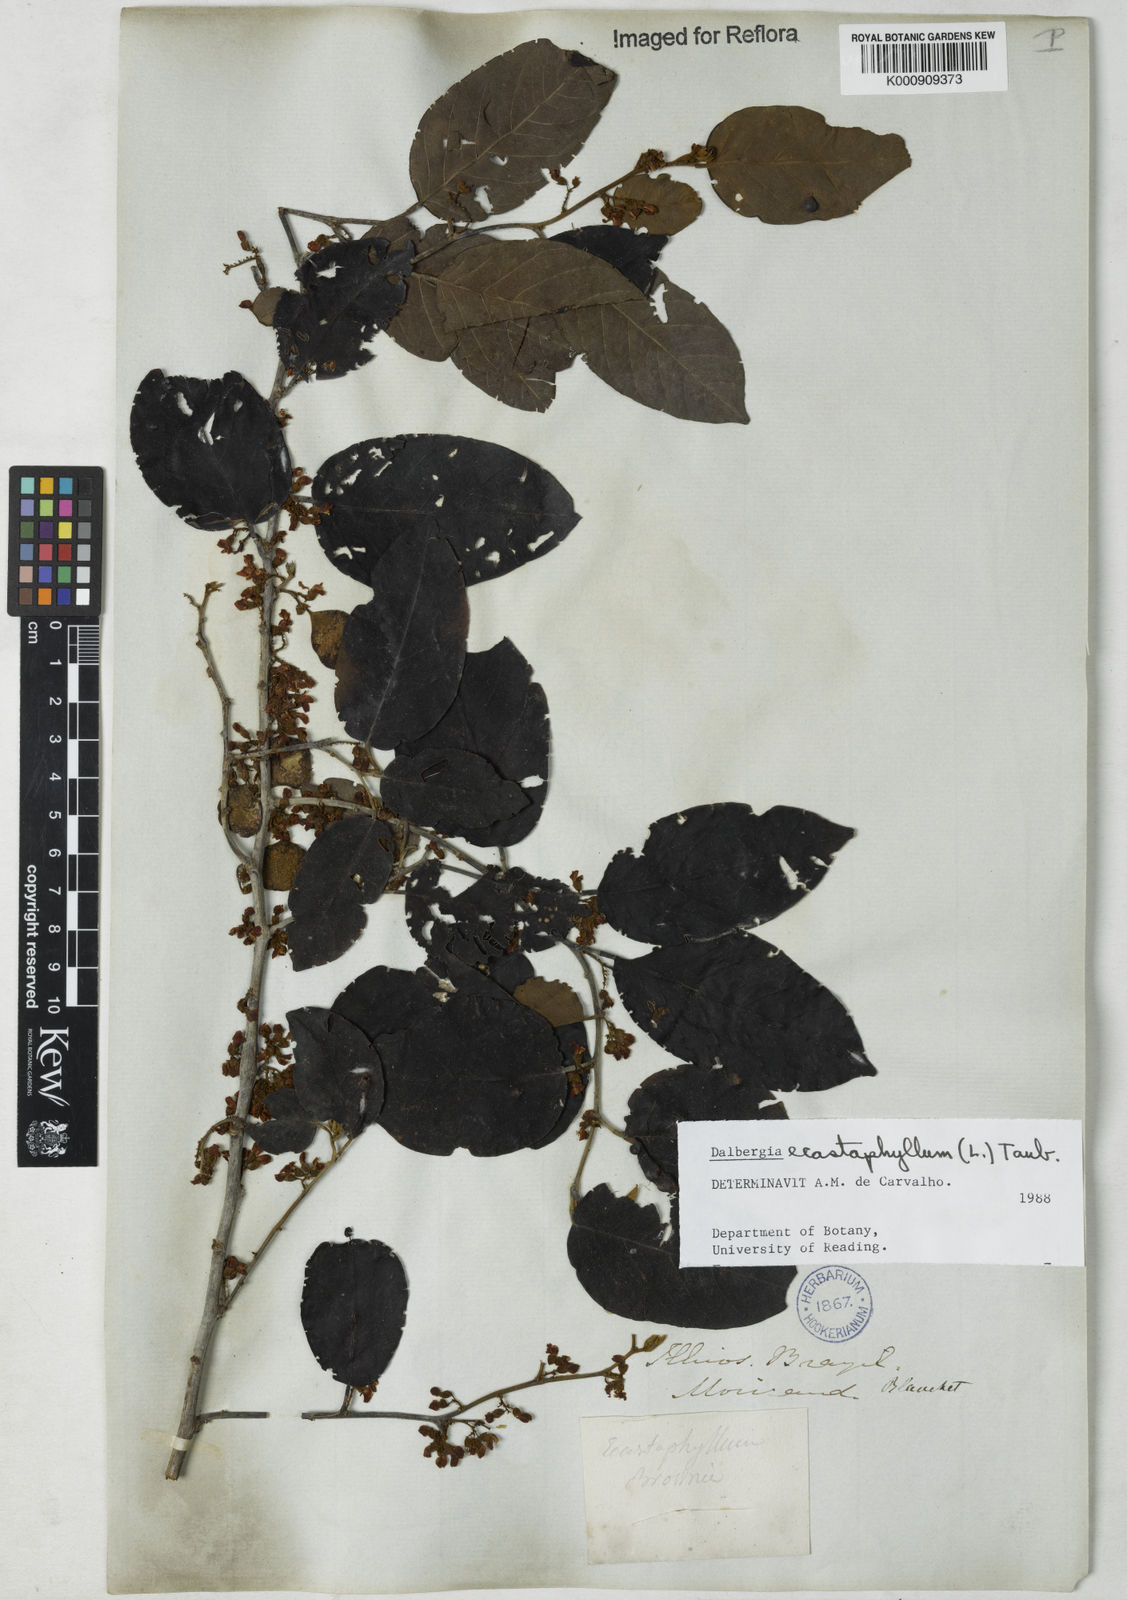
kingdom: Plantae
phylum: Tracheophyta
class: Magnoliopsida
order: Fabales
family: Fabaceae
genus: Dalbergia
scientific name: Dalbergia ecastaphyllum
